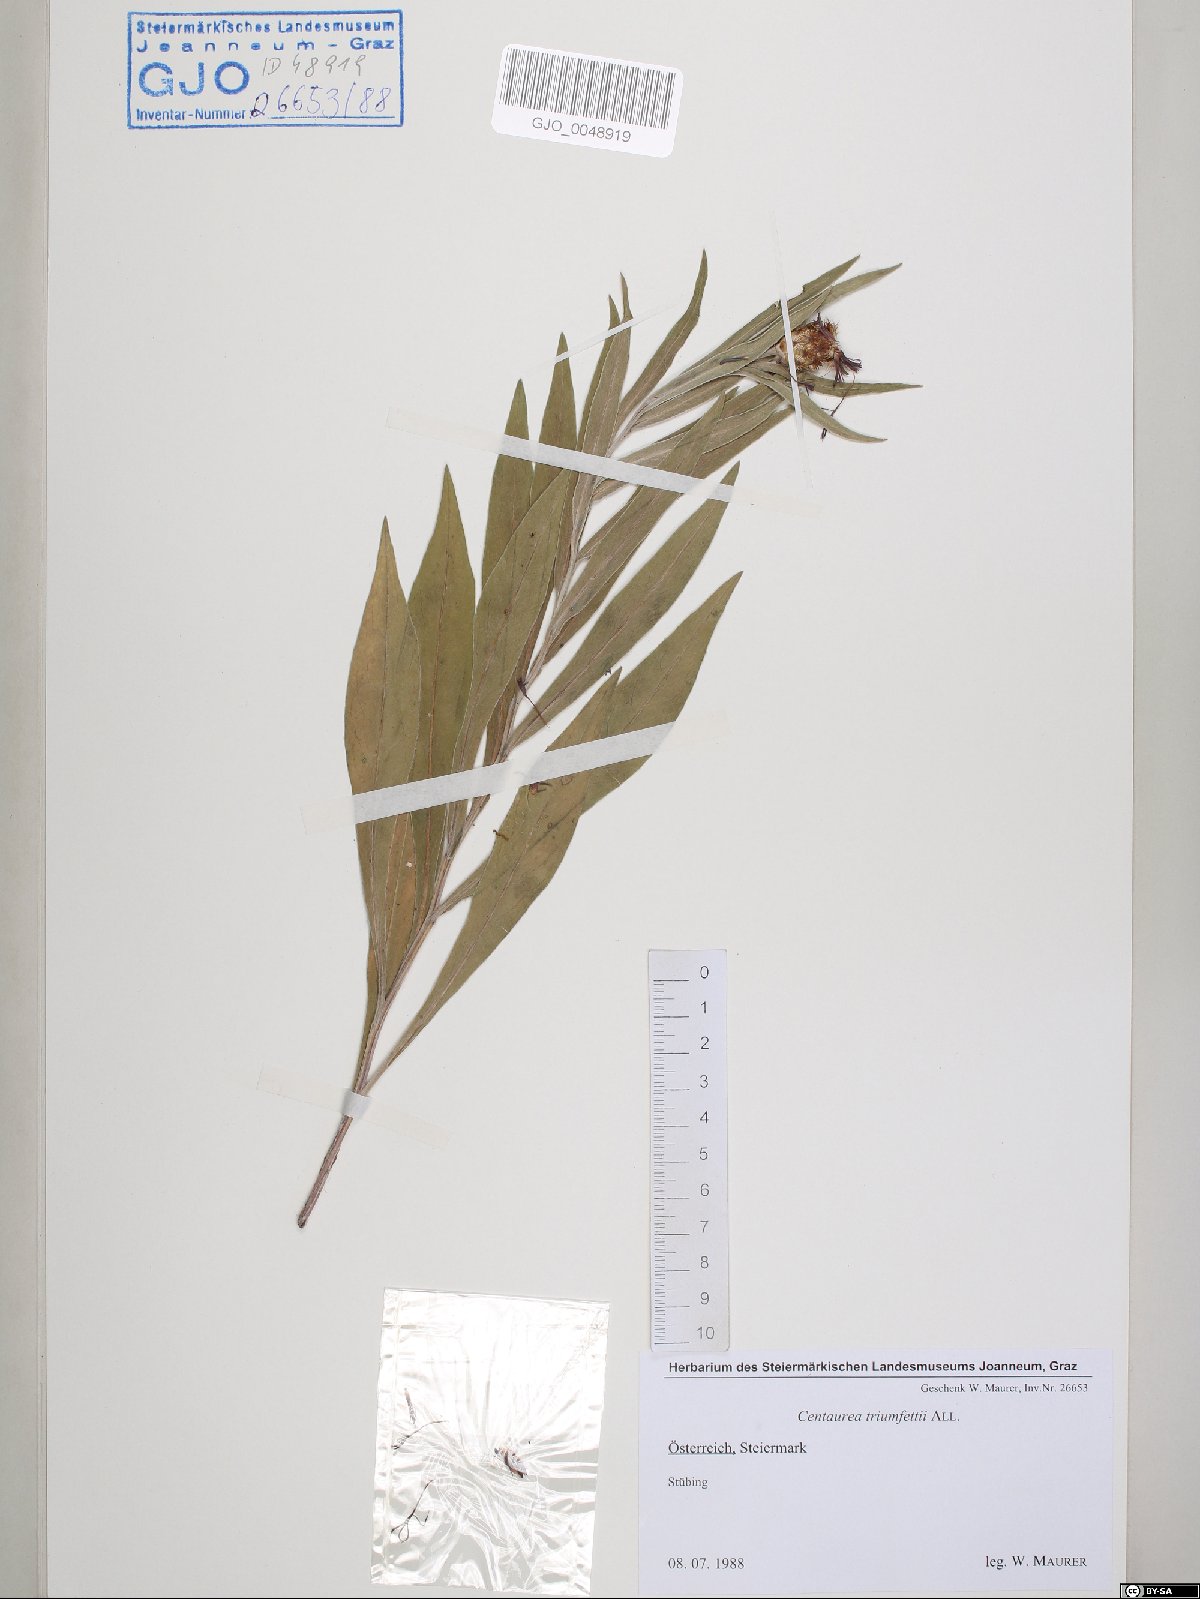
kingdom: Plantae
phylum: Tracheophyta
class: Magnoliopsida
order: Asterales
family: Asteraceae
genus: Centaurea
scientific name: Centaurea triumfettii
